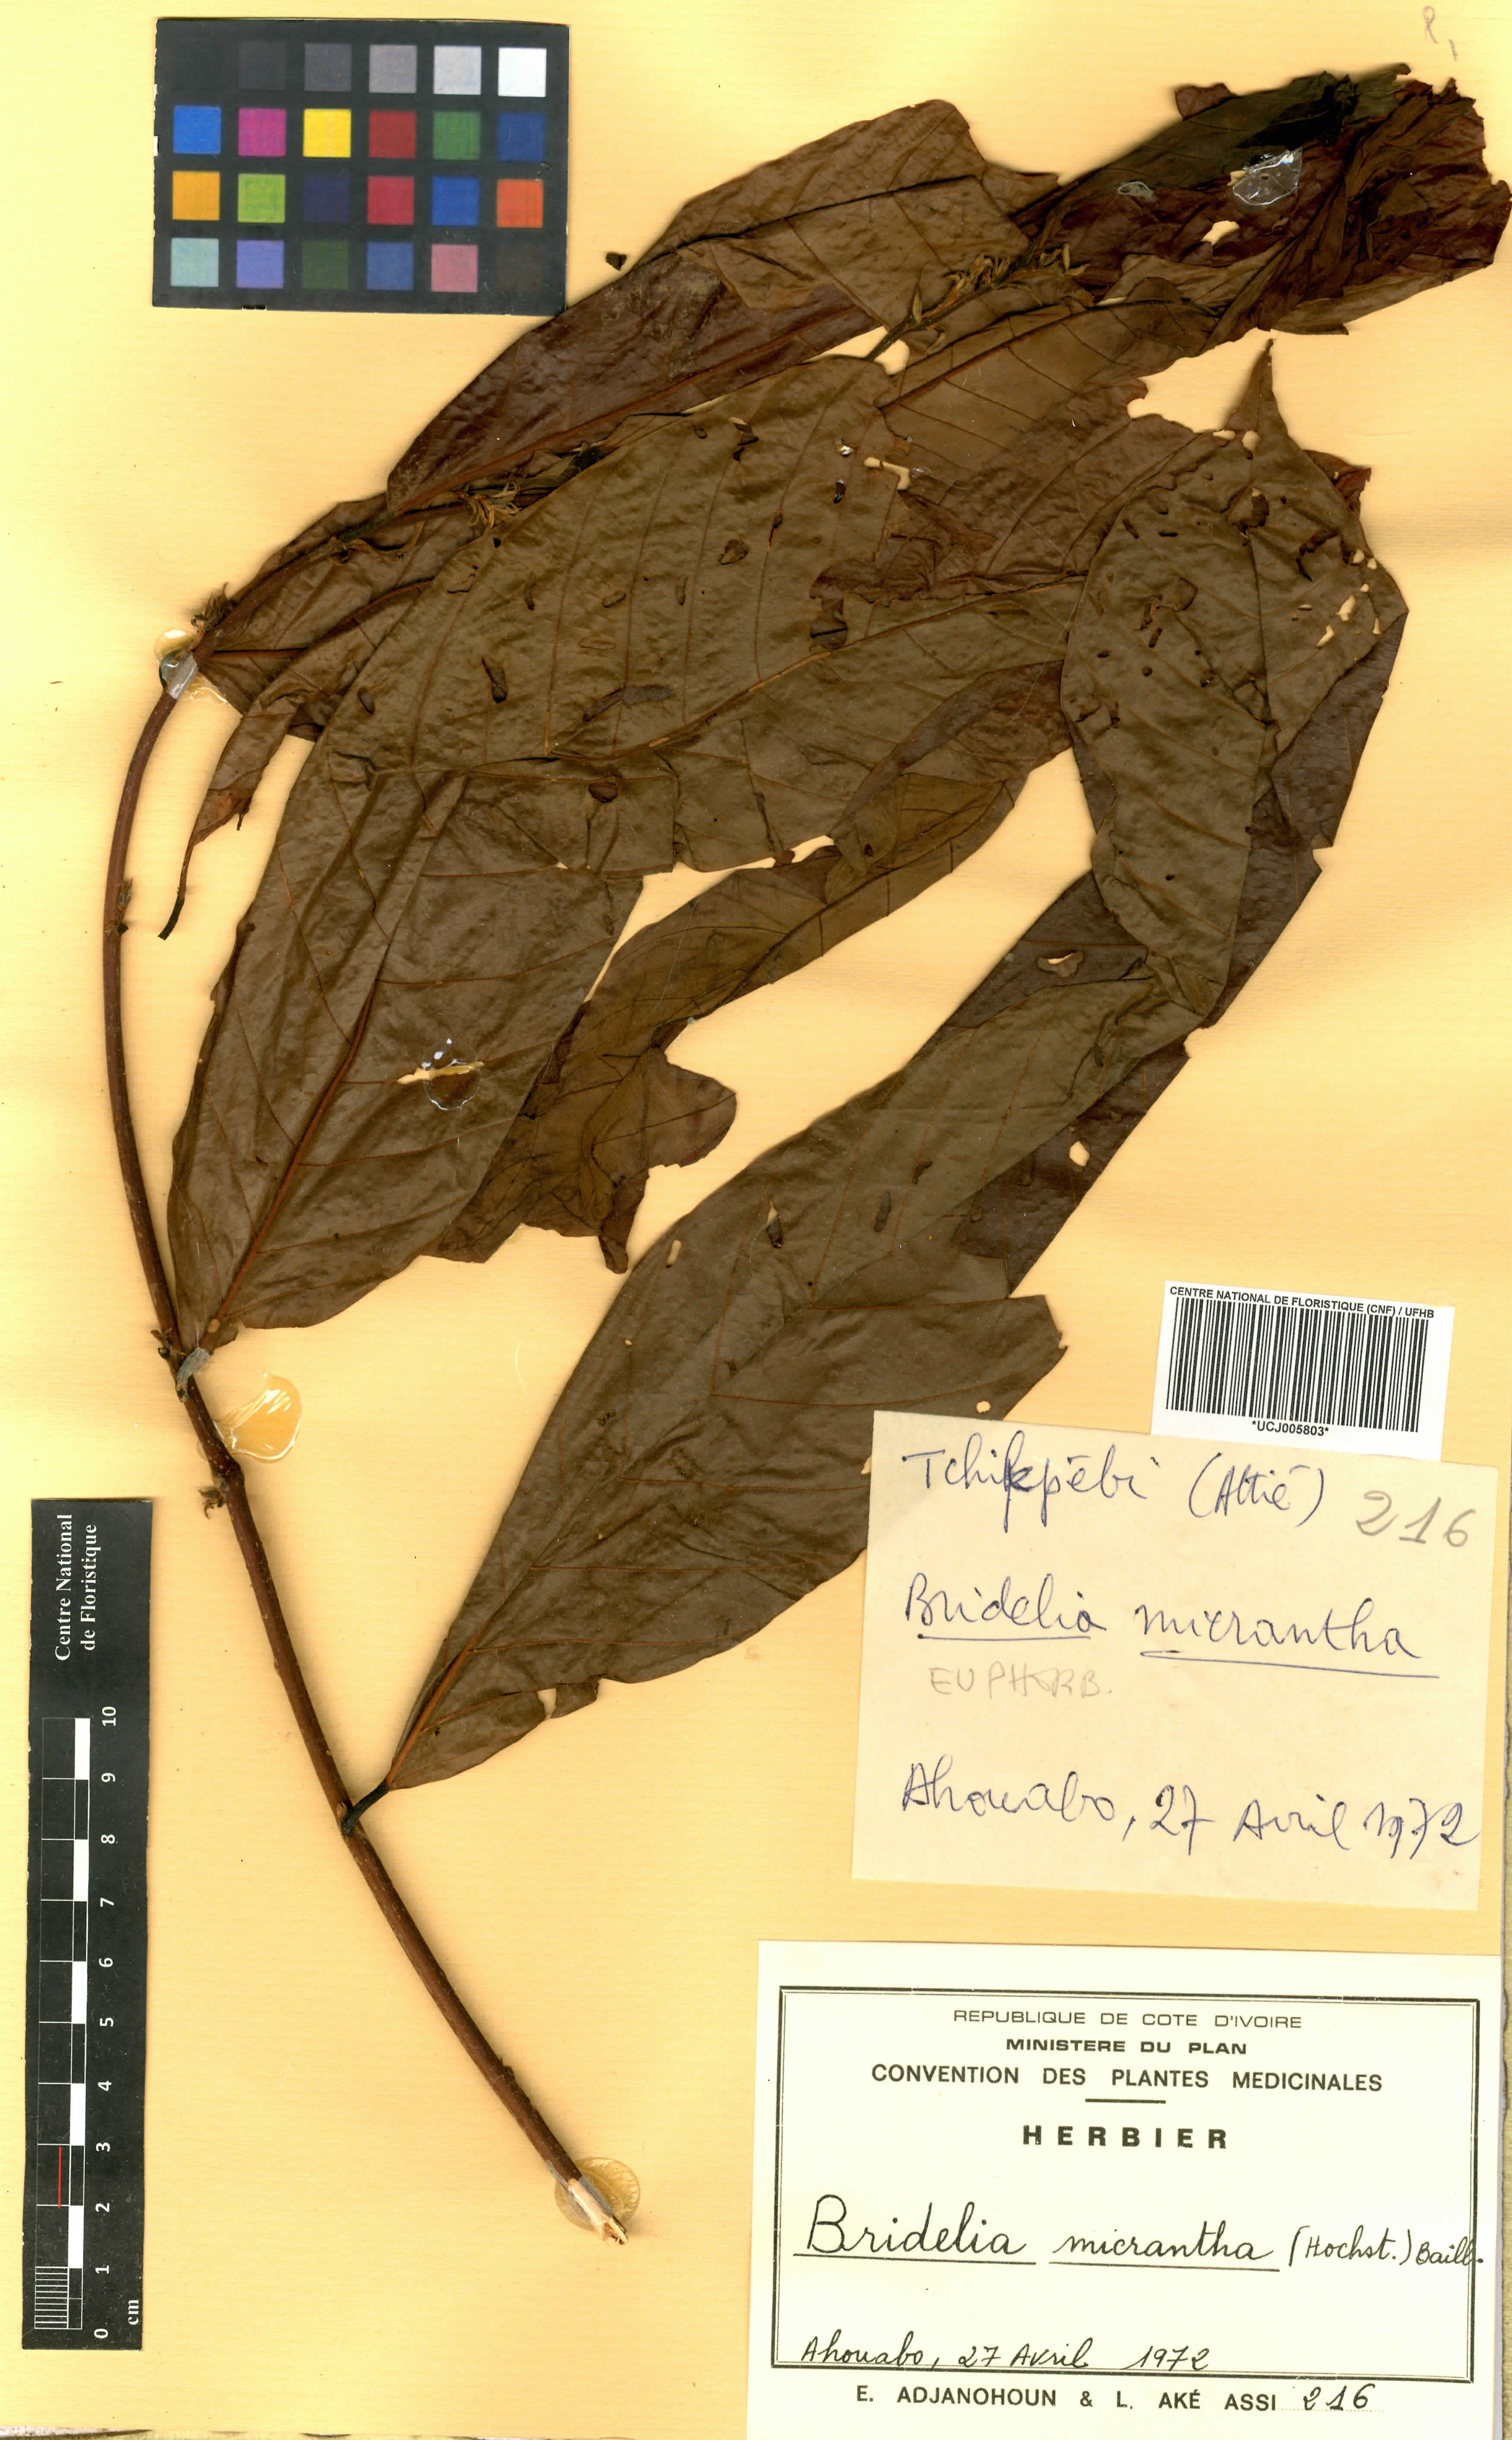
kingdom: Plantae
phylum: Tracheophyta
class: Magnoliopsida
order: Malpighiales
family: Phyllanthaceae
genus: Bridelia
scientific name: Bridelia micrantha
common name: Bridelia
